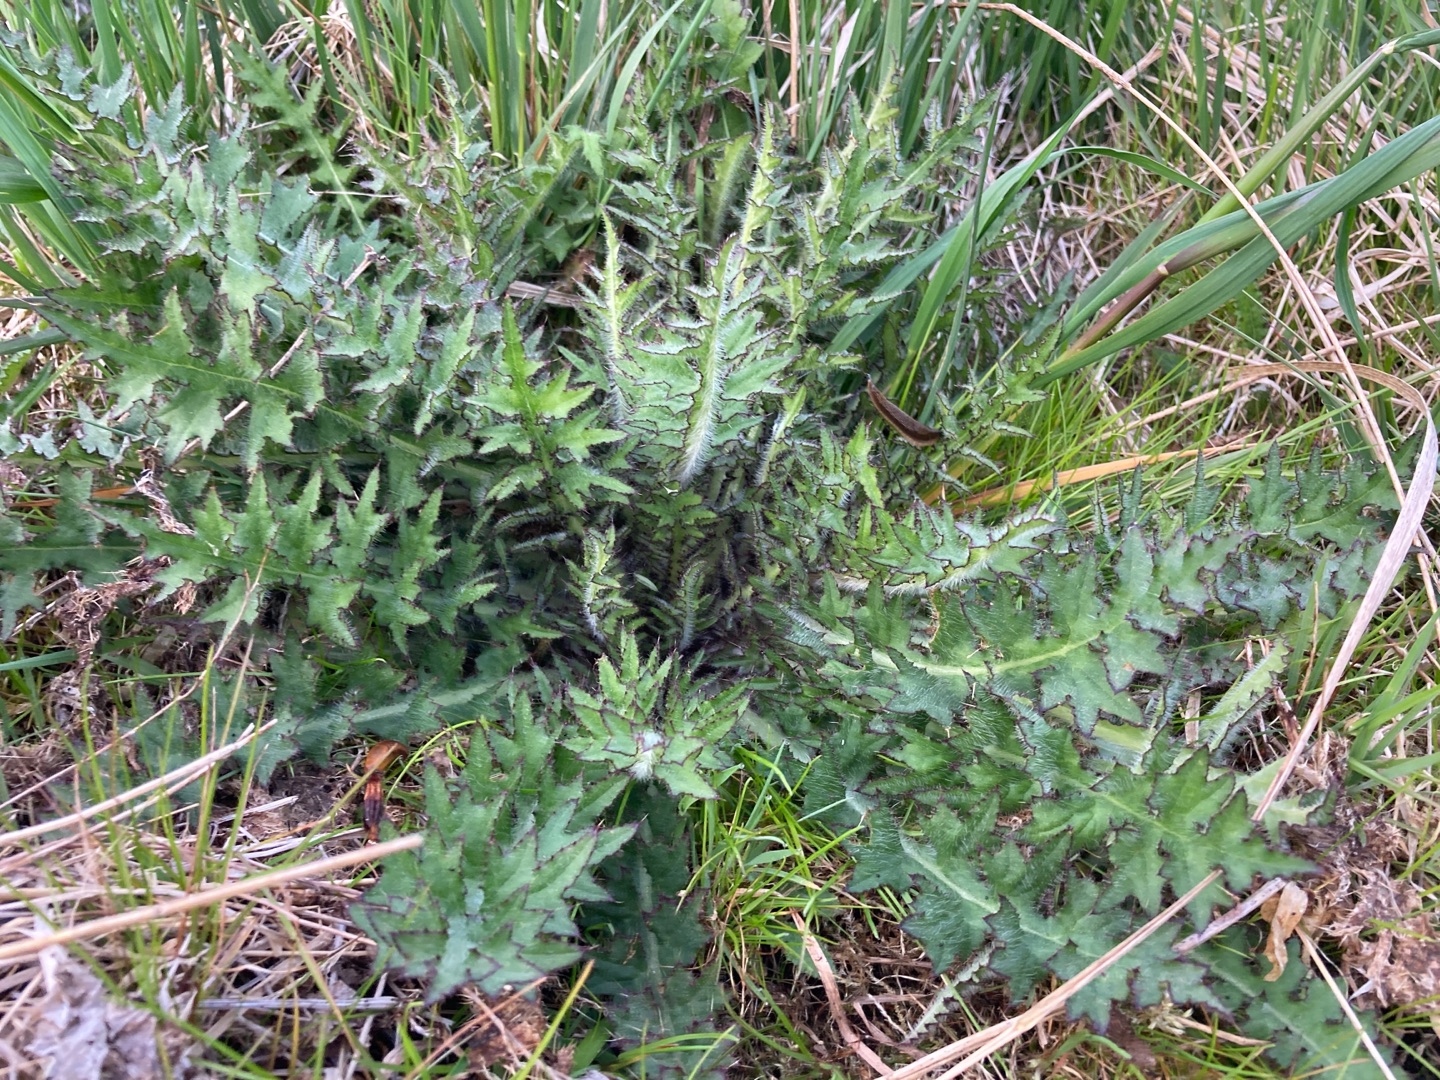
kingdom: Plantae
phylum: Tracheophyta
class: Magnoliopsida
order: Asterales
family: Asteraceae
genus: Cirsium
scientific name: Cirsium palustre
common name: Kær-tidsel
